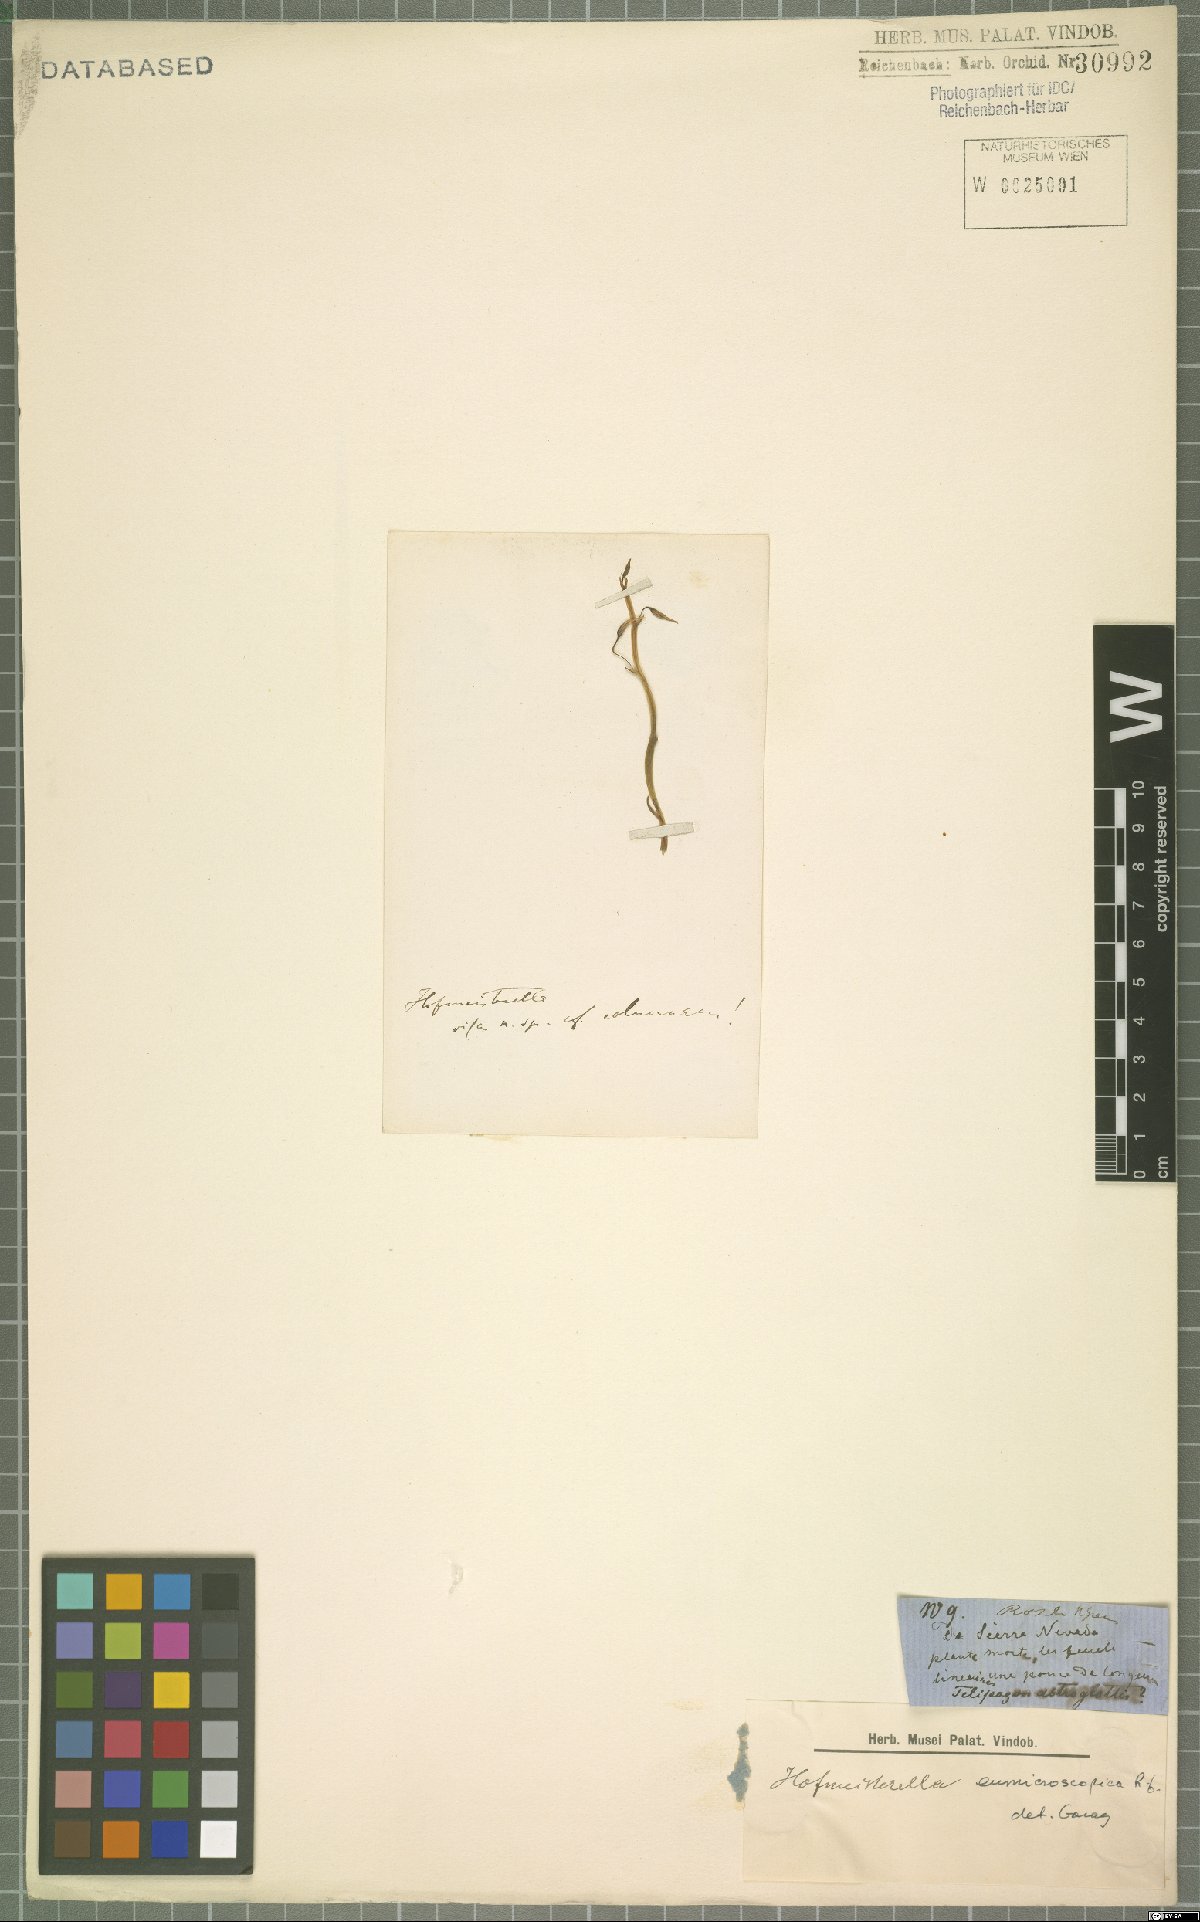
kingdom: Plantae
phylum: Tracheophyta
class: Liliopsida
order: Asparagales
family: Orchidaceae
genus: Hofmeisterella
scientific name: Hofmeisterella eumicroscopica
